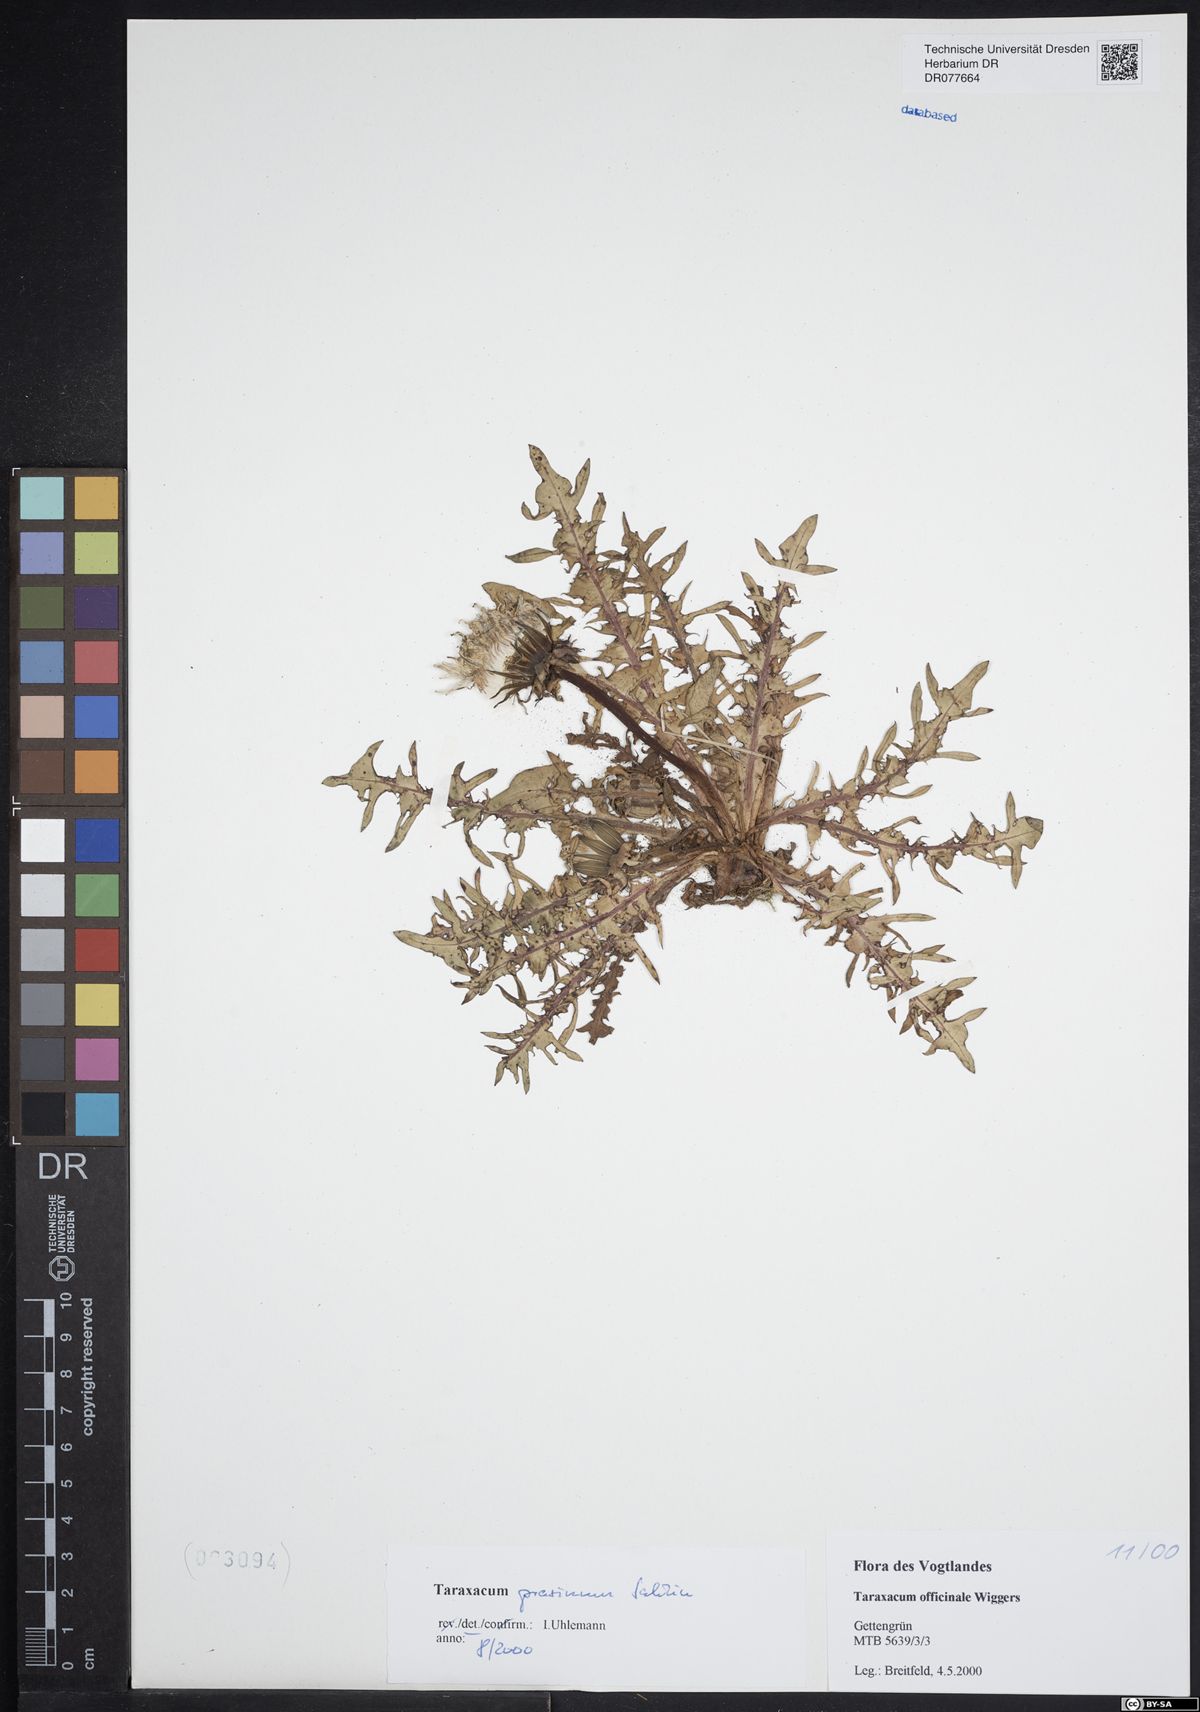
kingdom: Plantae
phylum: Tracheophyta
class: Magnoliopsida
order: Asterales
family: Asteraceae
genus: Taraxacum
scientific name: Taraxacum prasinum
